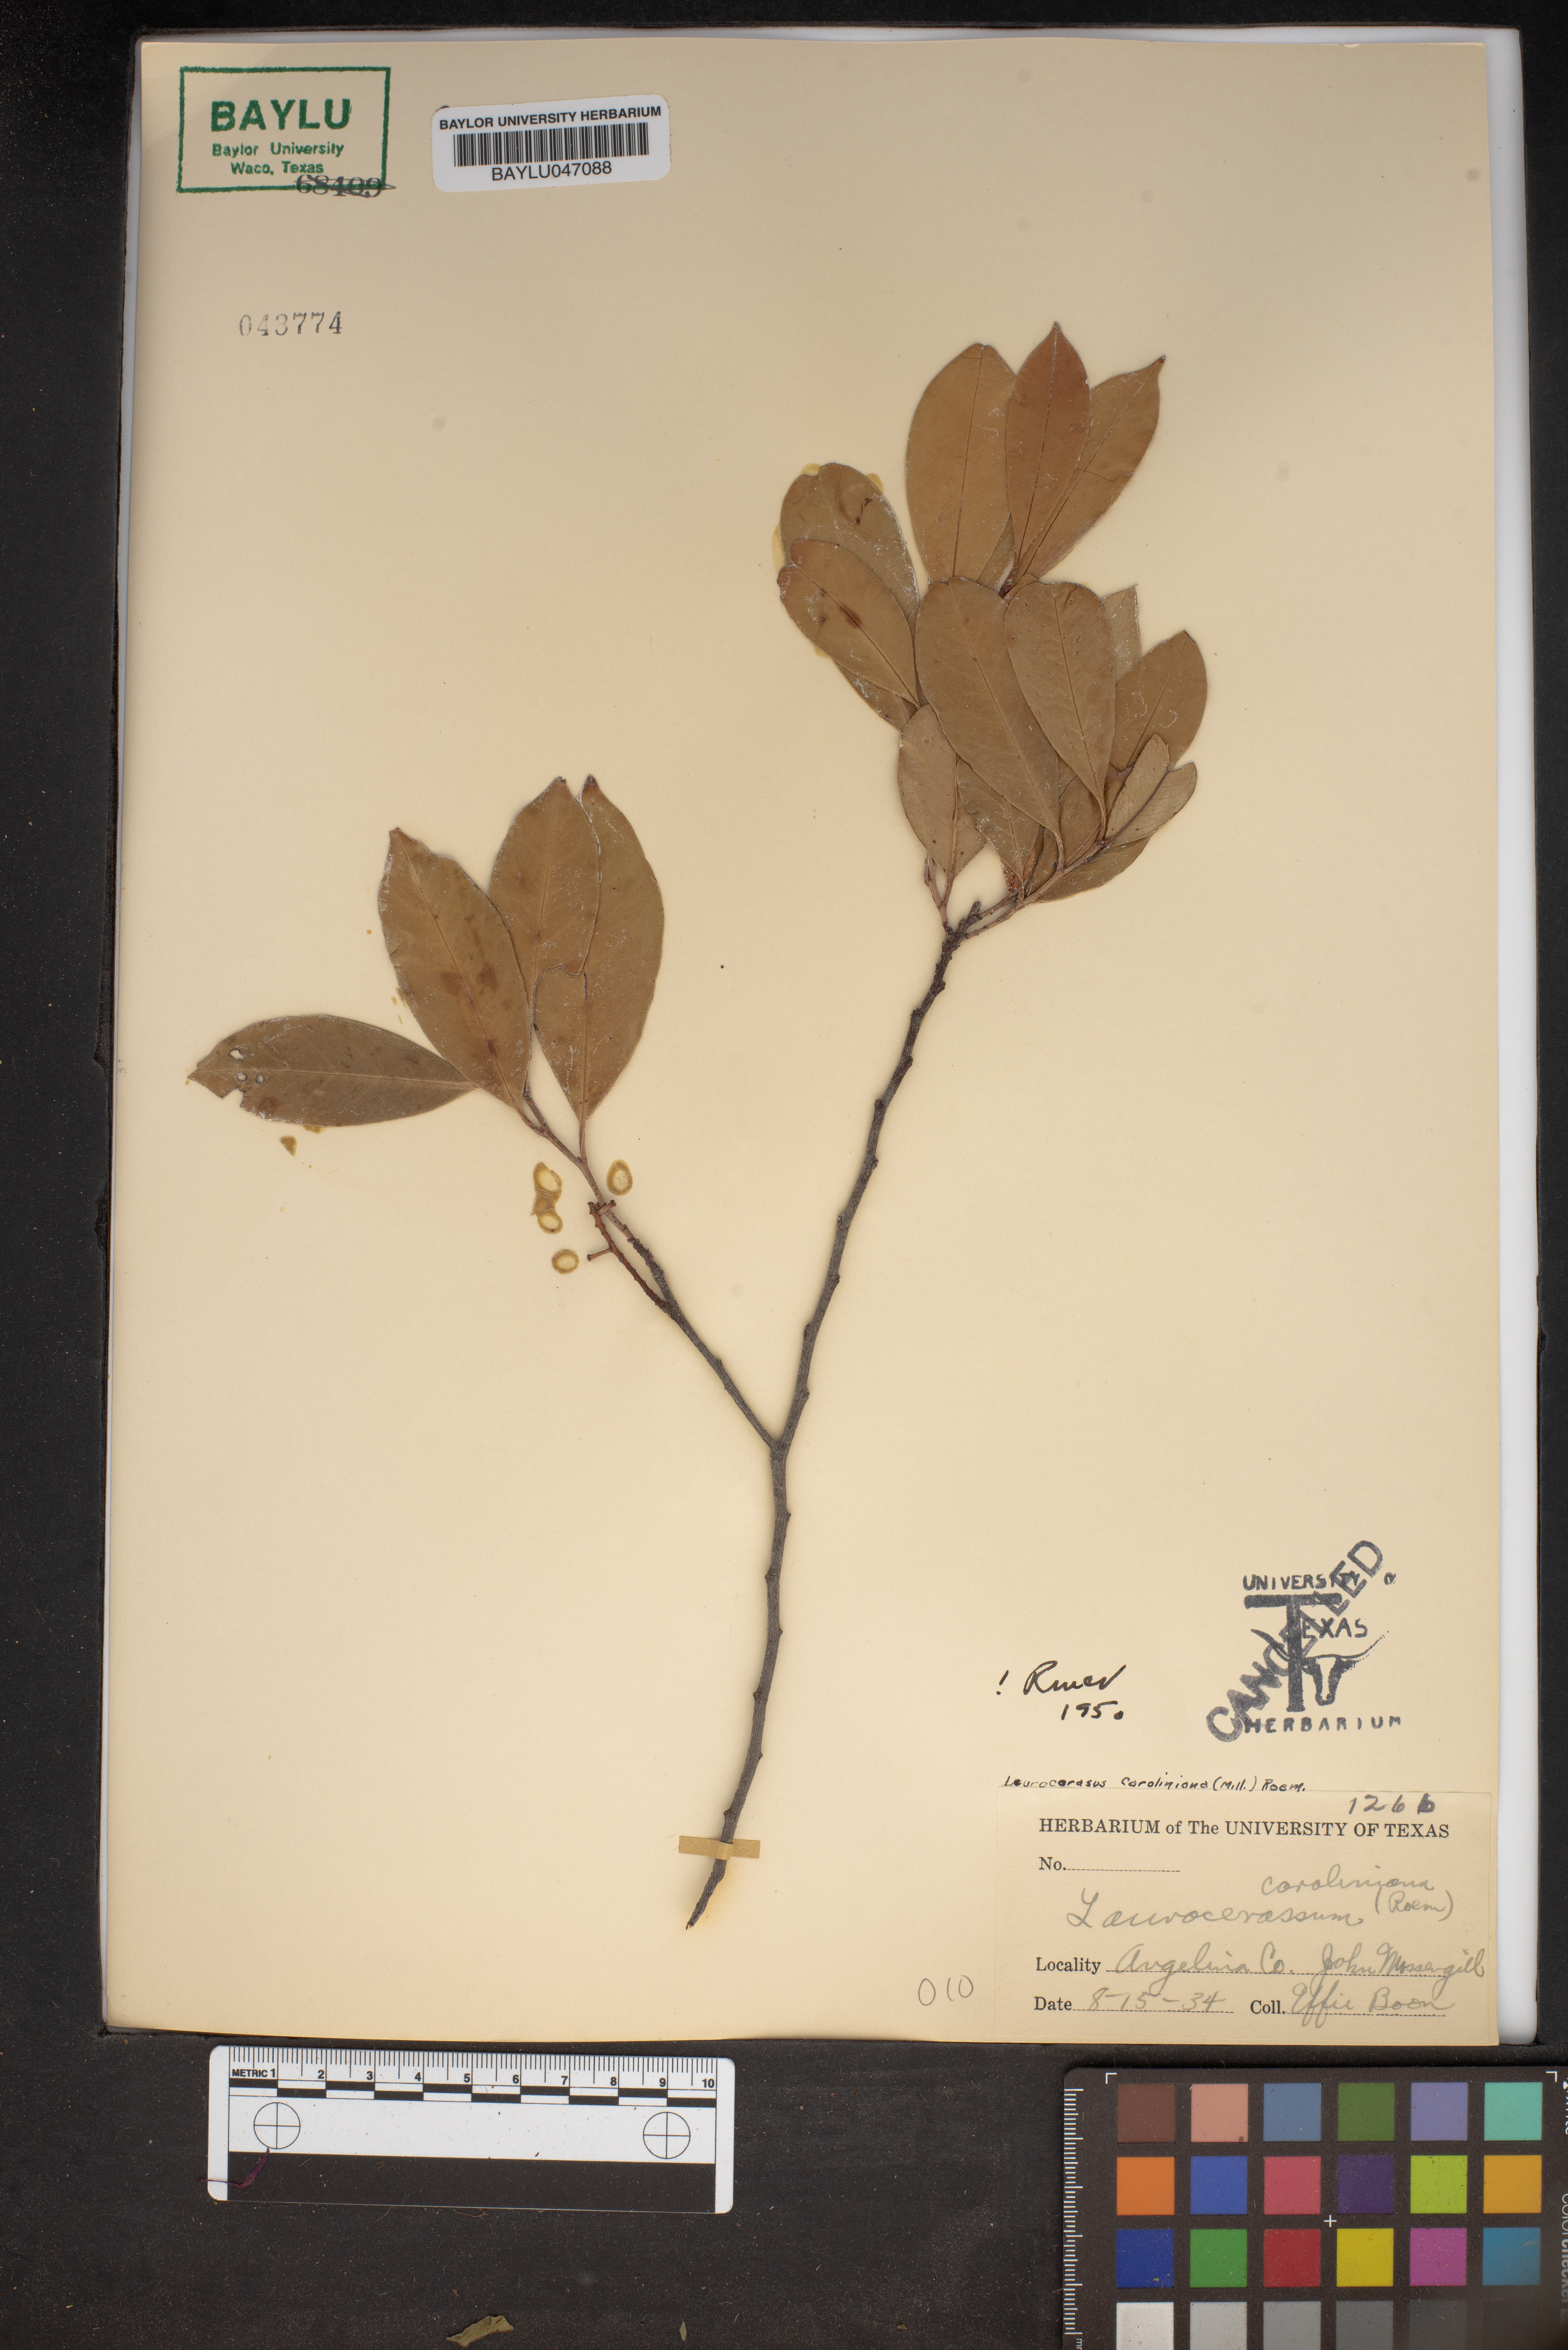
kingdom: Plantae
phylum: Tracheophyta
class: Magnoliopsida
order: Rosales
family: Rosaceae
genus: Prunus
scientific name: Prunus caroliniana
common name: Carolina laurel cherry
